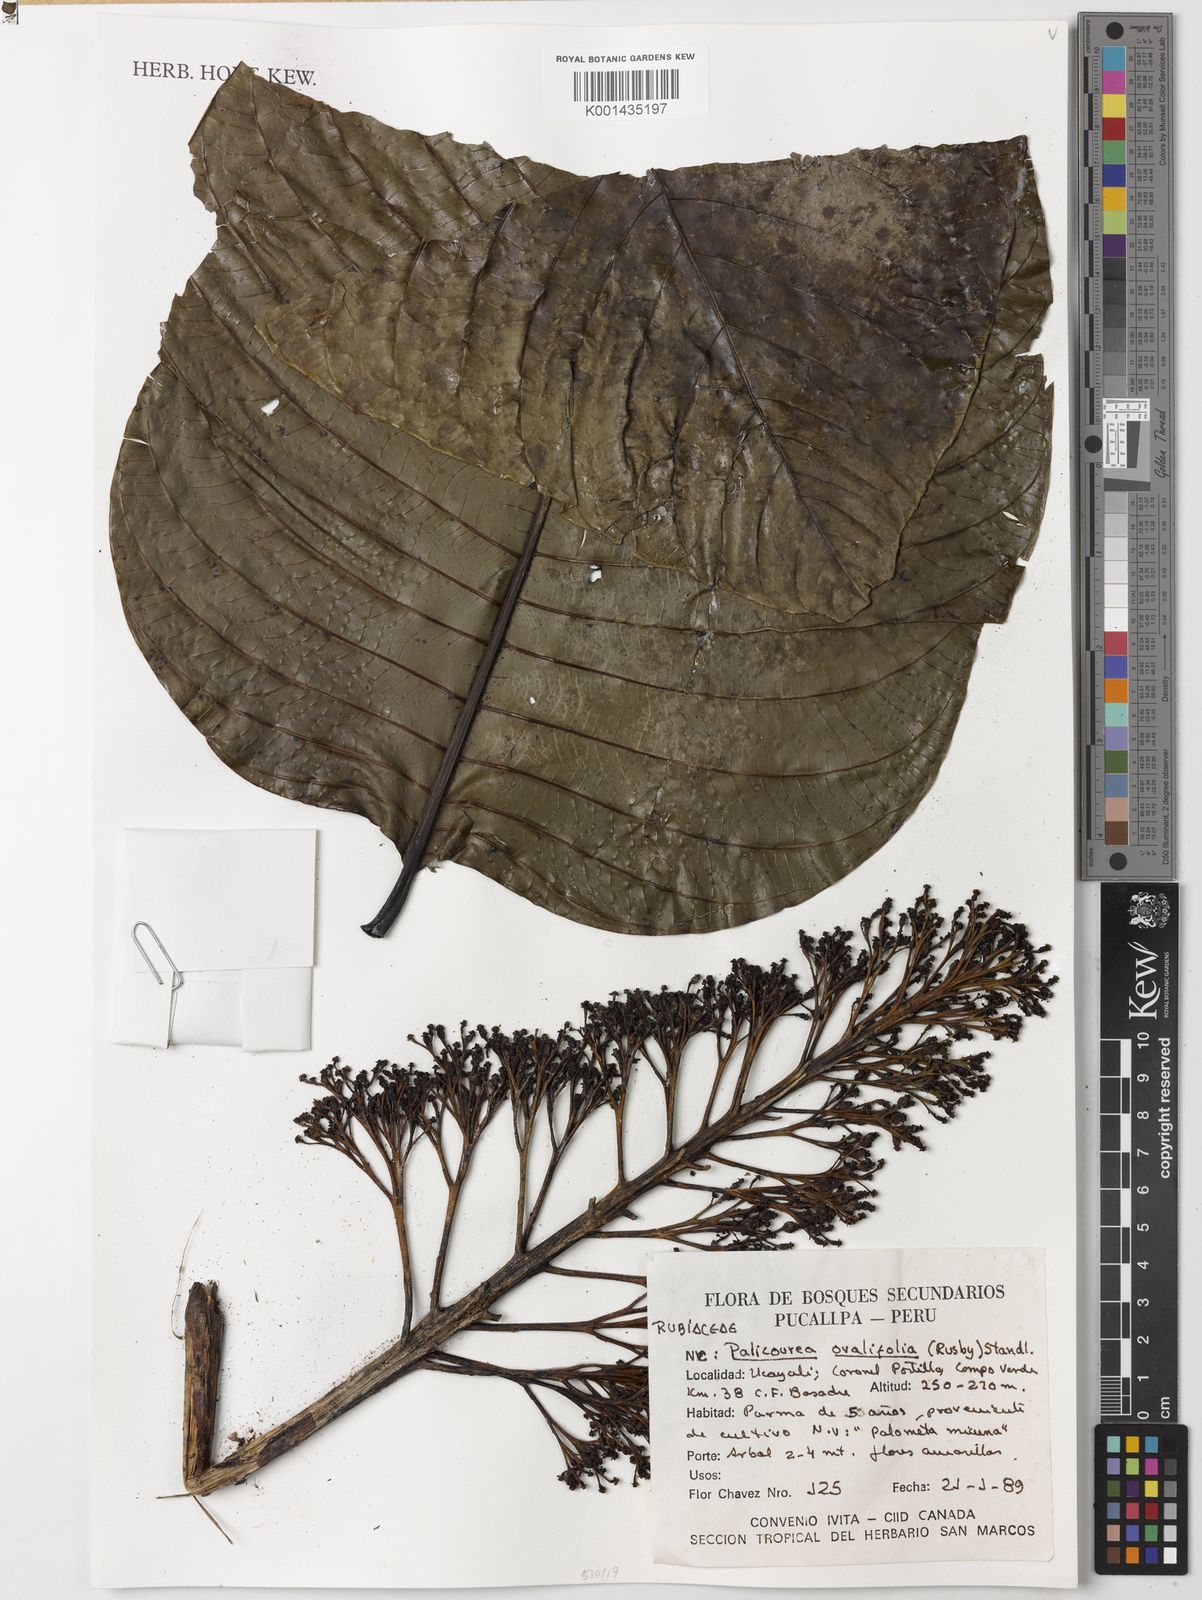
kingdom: Plantae
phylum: Tracheophyta
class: Magnoliopsida
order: Gentianales
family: Rubiaceae
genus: Palicourea
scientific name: Palicourea mansoana
